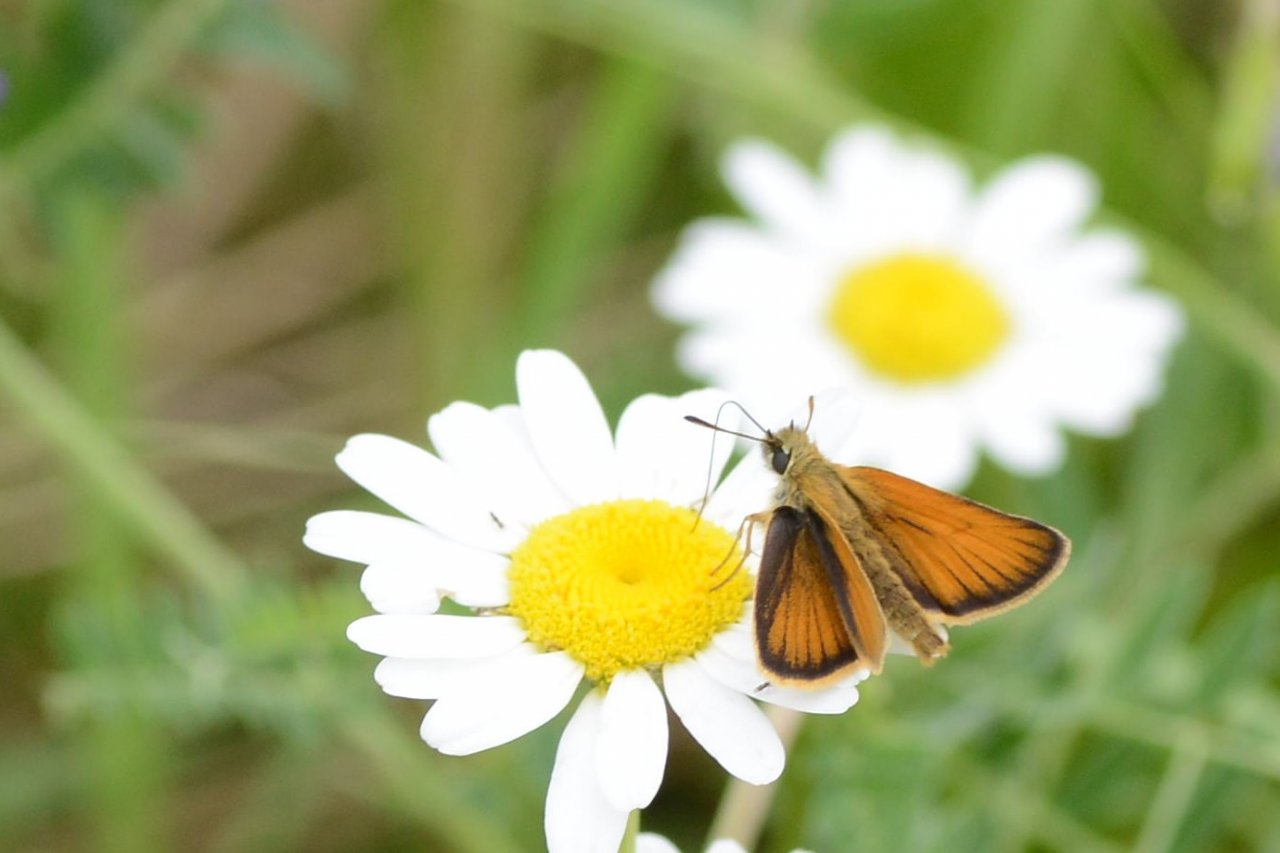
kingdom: Animalia
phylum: Arthropoda
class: Insecta
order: Lepidoptera
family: Hesperiidae
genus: Thymelicus
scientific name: Thymelicus lineola
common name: European Skipper
